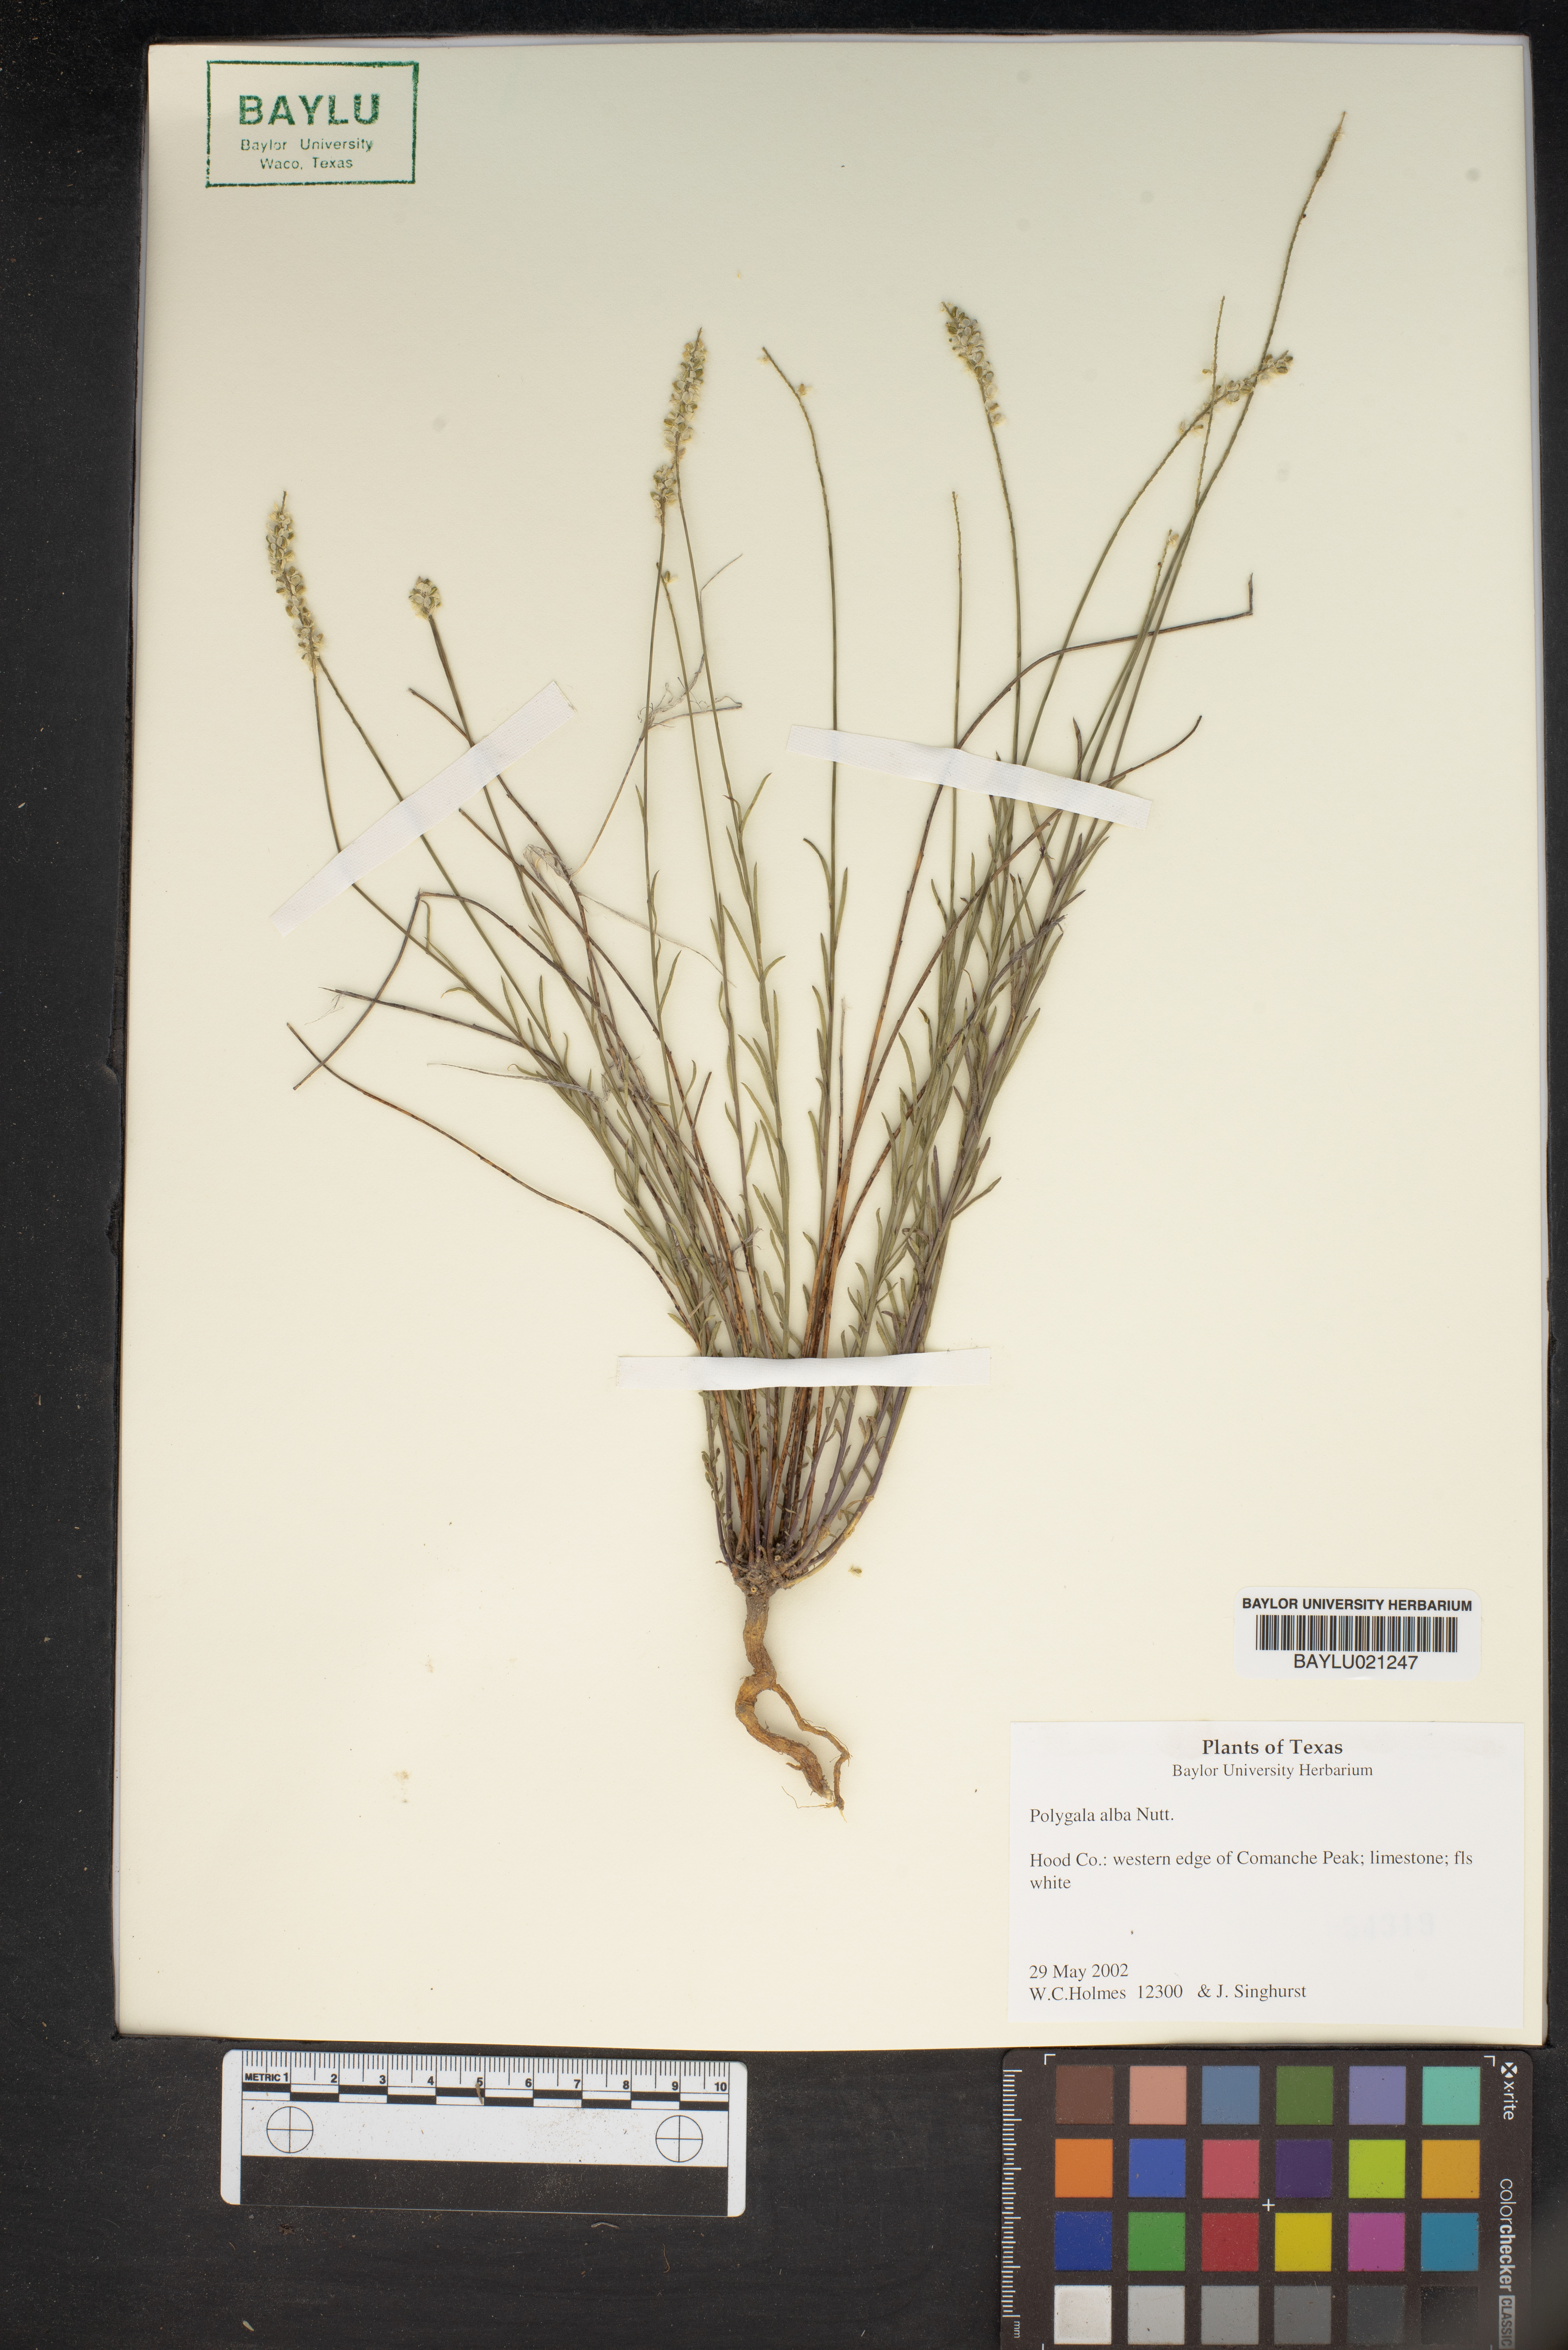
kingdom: Plantae
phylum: Tracheophyta
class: Magnoliopsida
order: Fabales
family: Polygalaceae
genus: Polygala
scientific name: Polygala alba
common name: White milkwort
